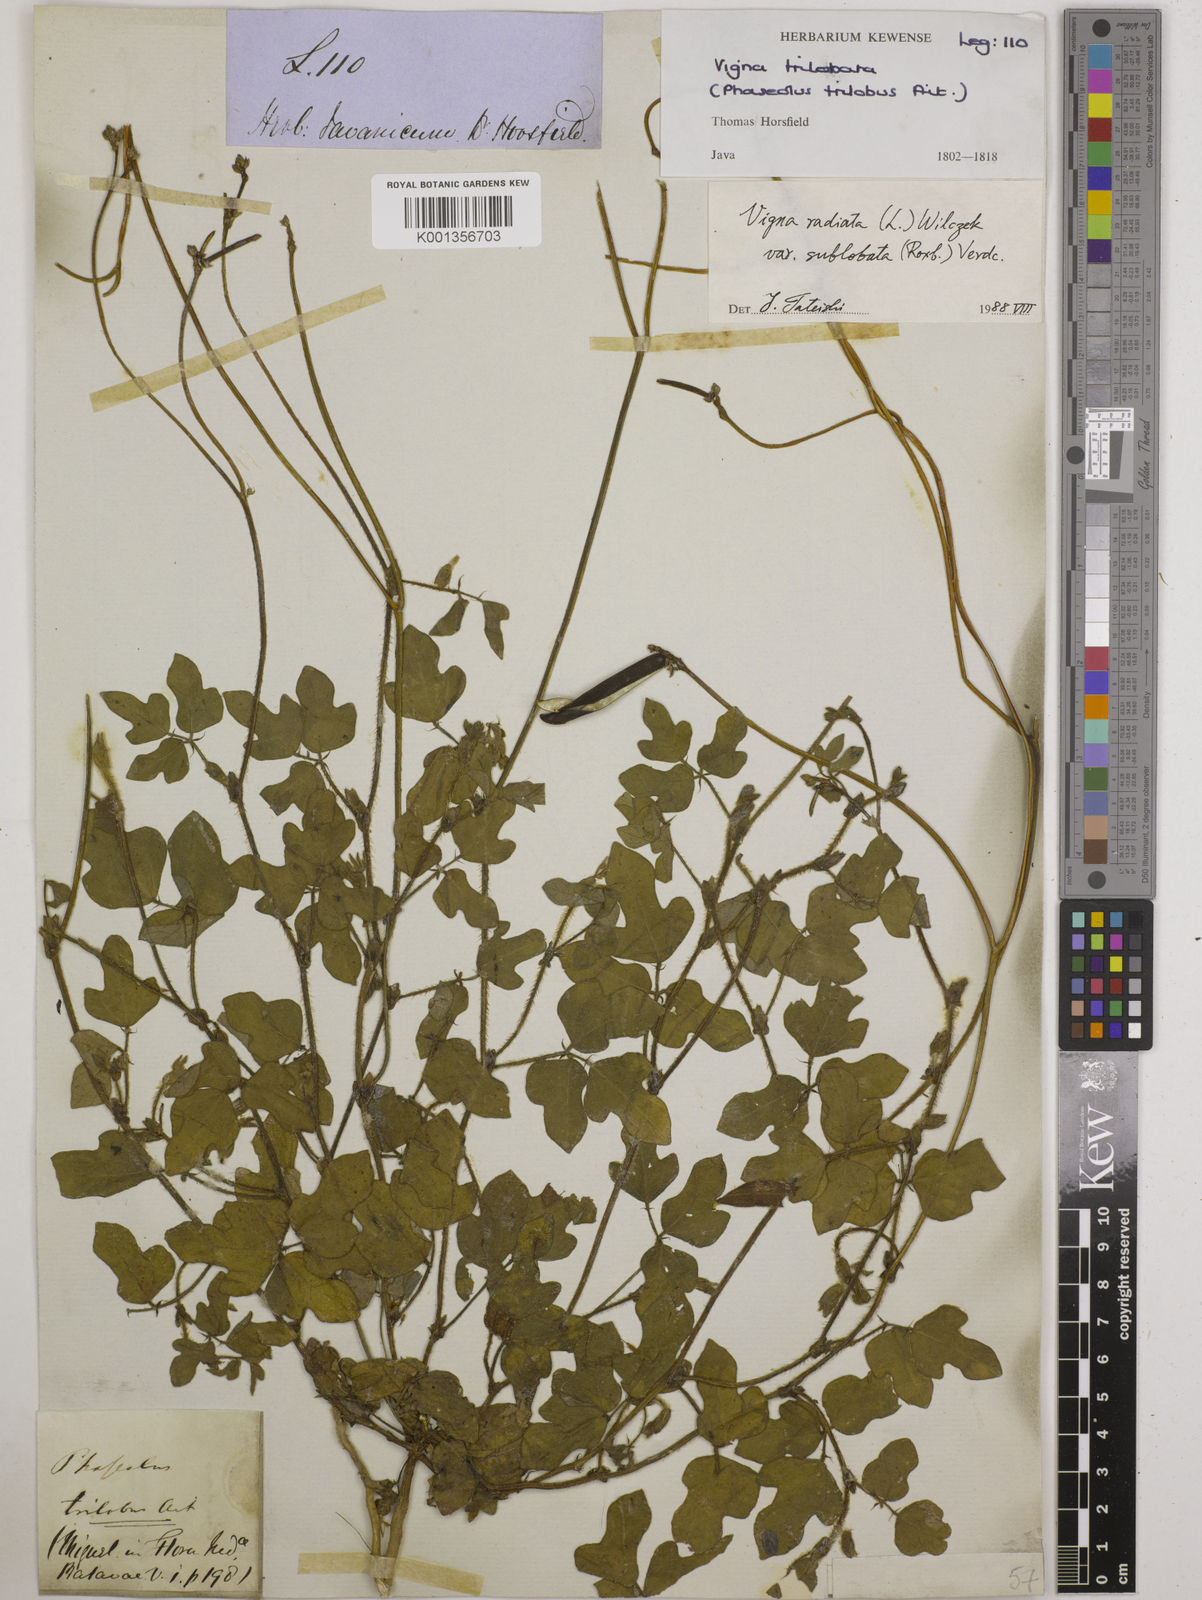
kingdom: Plantae
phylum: Tracheophyta
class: Magnoliopsida
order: Fabales
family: Fabaceae
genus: Vigna
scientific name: Vigna radiata
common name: Mung-bean
